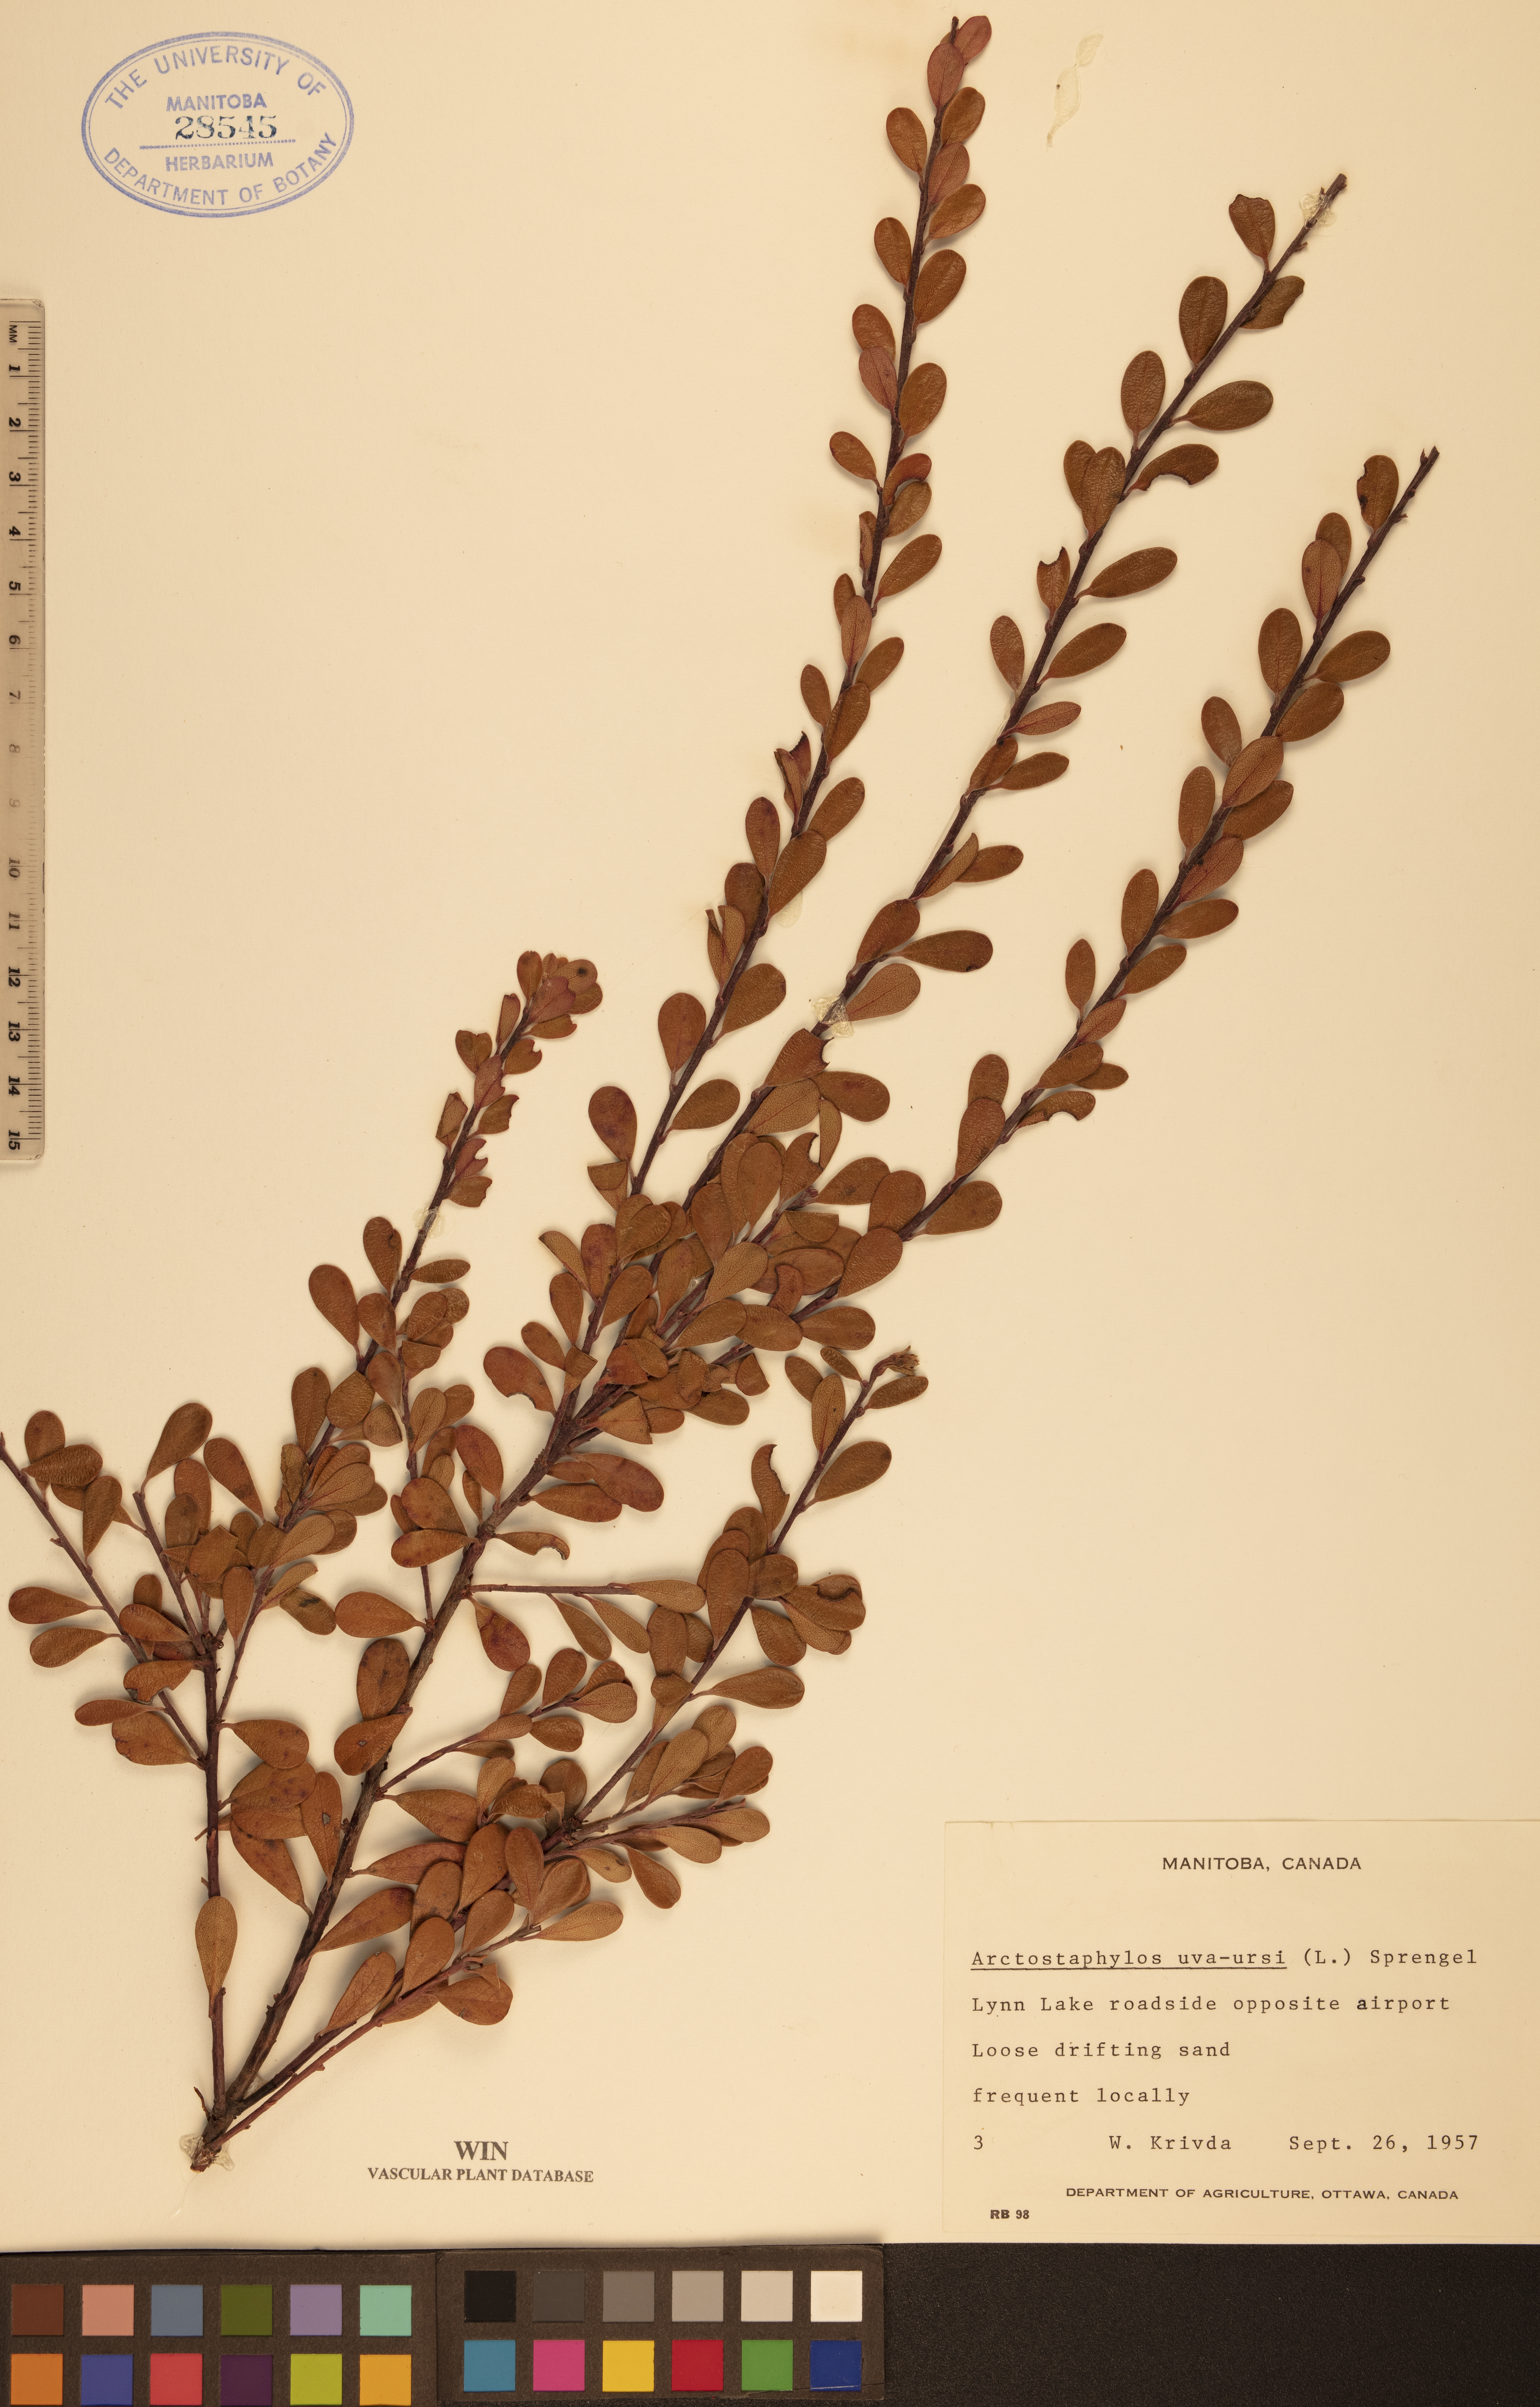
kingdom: Plantae
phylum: Tracheophyta
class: Magnoliopsida
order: Ericales
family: Ericaceae
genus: Arctostaphylos
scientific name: Arctostaphylos uva-ursi
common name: Bearberry
